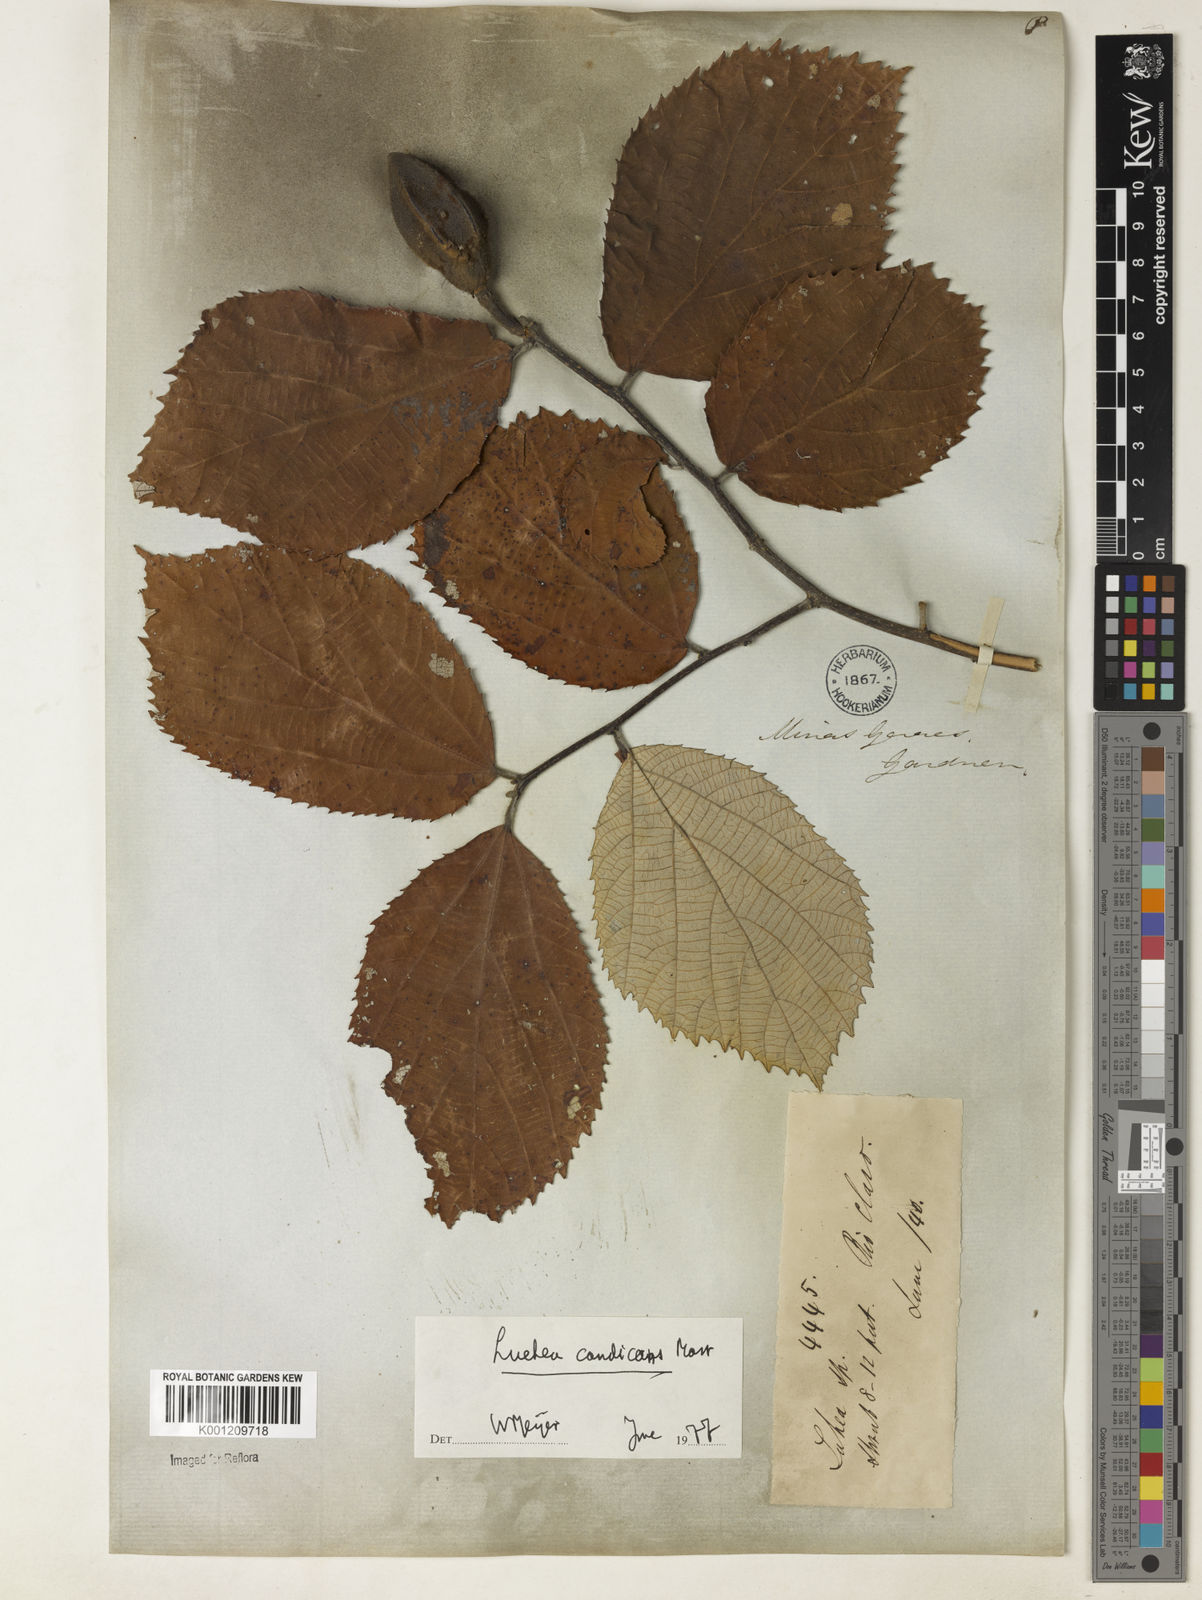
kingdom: Plantae
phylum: Tracheophyta
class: Magnoliopsida
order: Malvales
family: Malvaceae
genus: Luehea
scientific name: Luehea candicans
